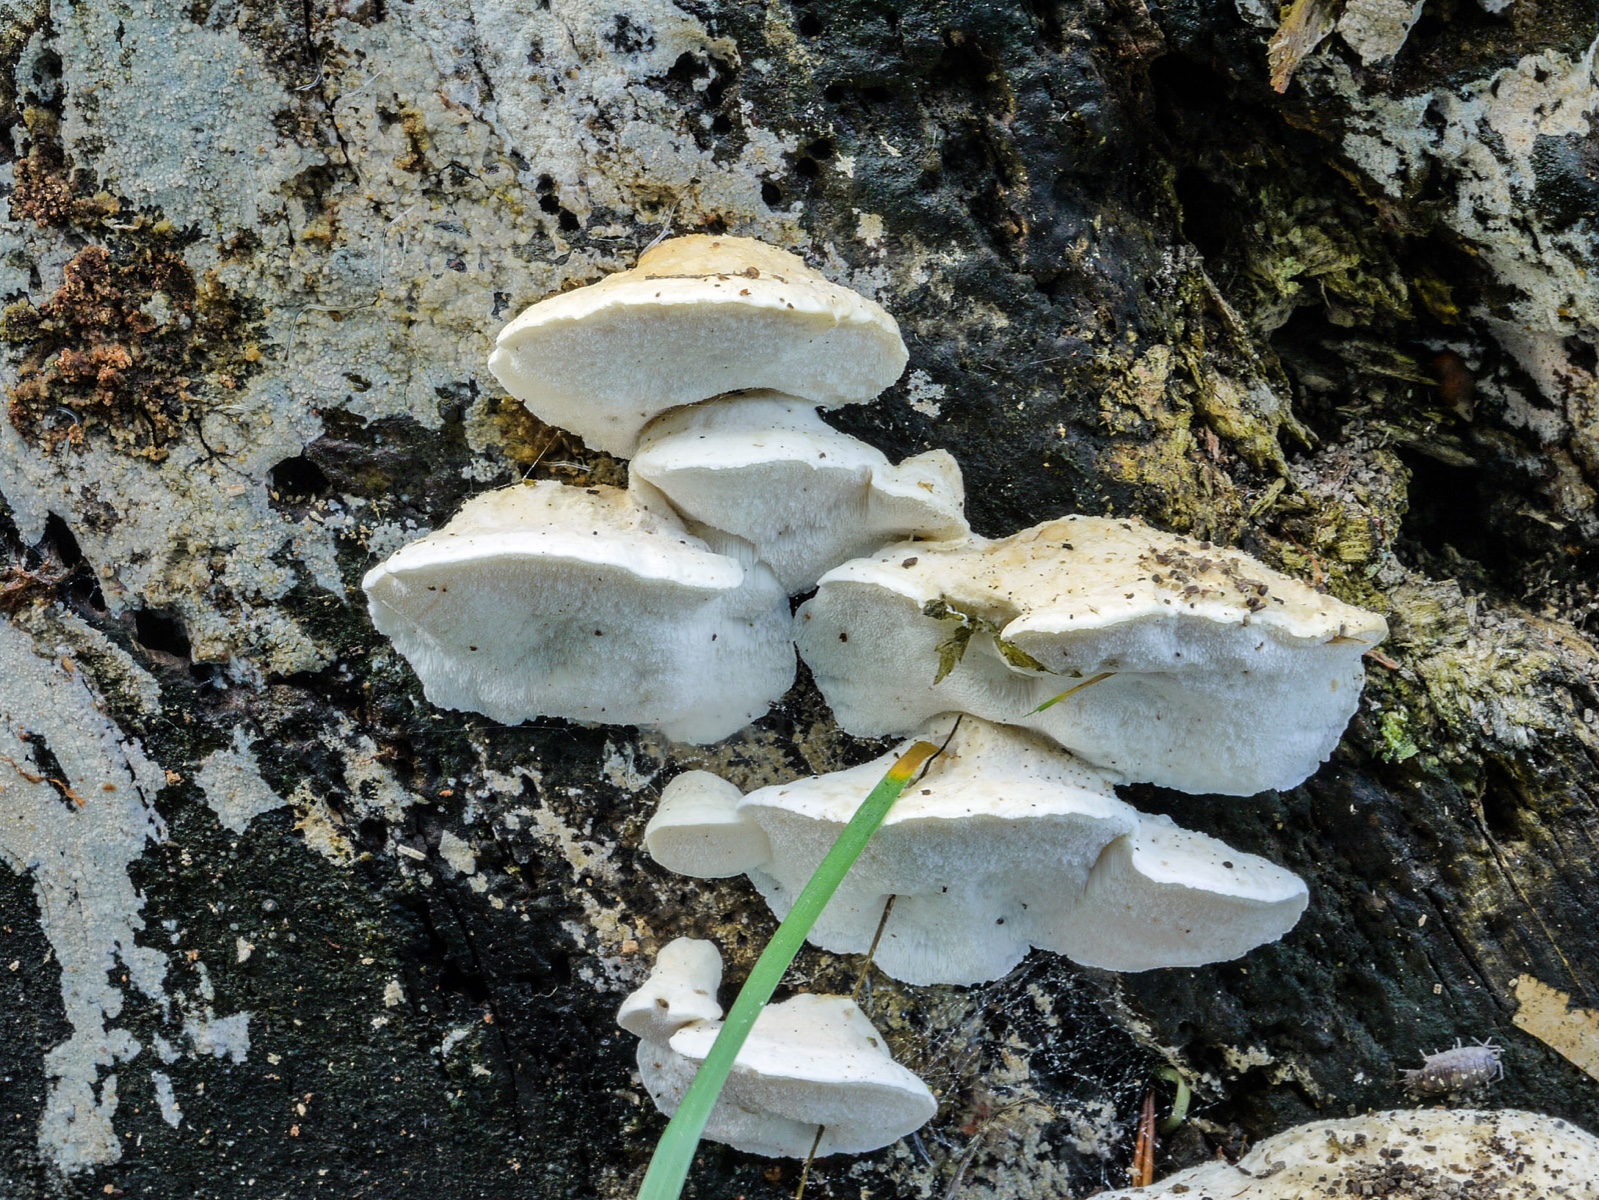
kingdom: Fungi
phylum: Basidiomycota
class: Agaricomycetes
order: Polyporales
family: Dacryobolaceae
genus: Postia
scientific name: Postia tephroleuca
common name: grålig kødporesvamp
